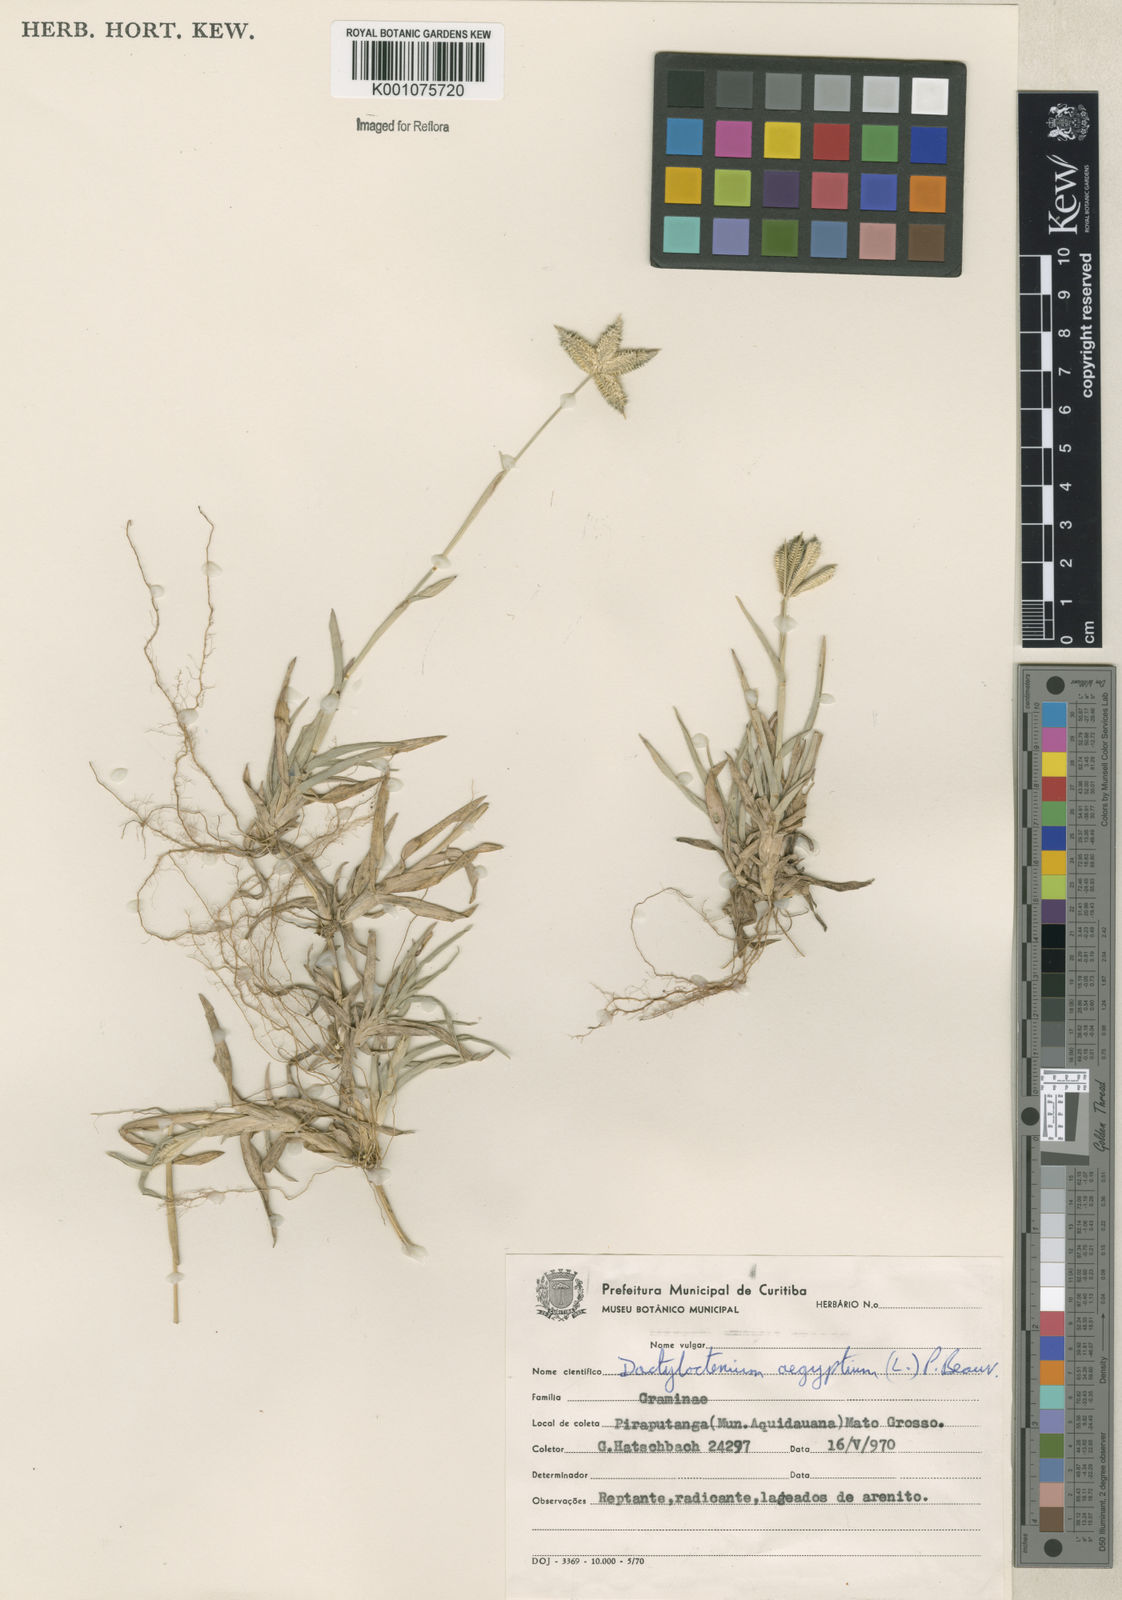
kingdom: Plantae
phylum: Tracheophyta
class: Liliopsida
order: Poales
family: Poaceae
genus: Dactyloctenium
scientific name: Dactyloctenium aegyptium
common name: Egyptian grass
